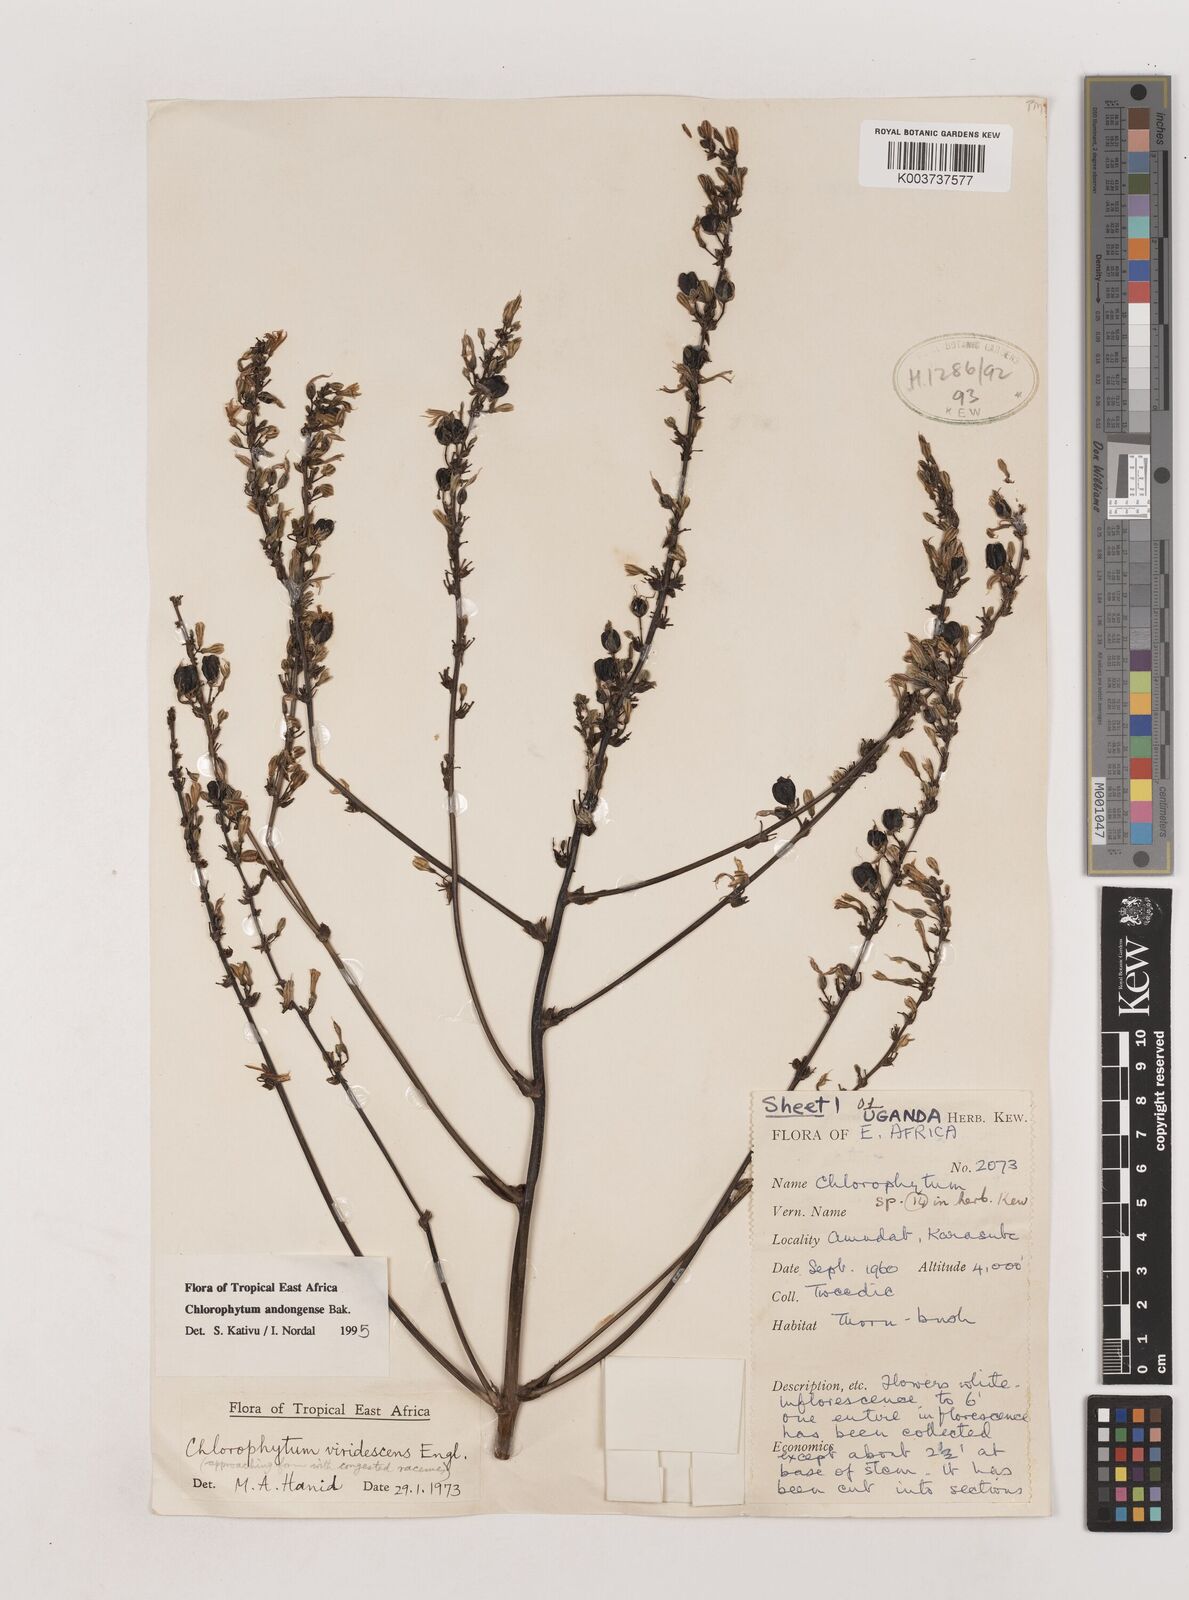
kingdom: Plantae
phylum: Tracheophyta
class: Liliopsida
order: Asparagales
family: Asparagaceae
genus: Chlorophytum
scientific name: Chlorophytum andongense
